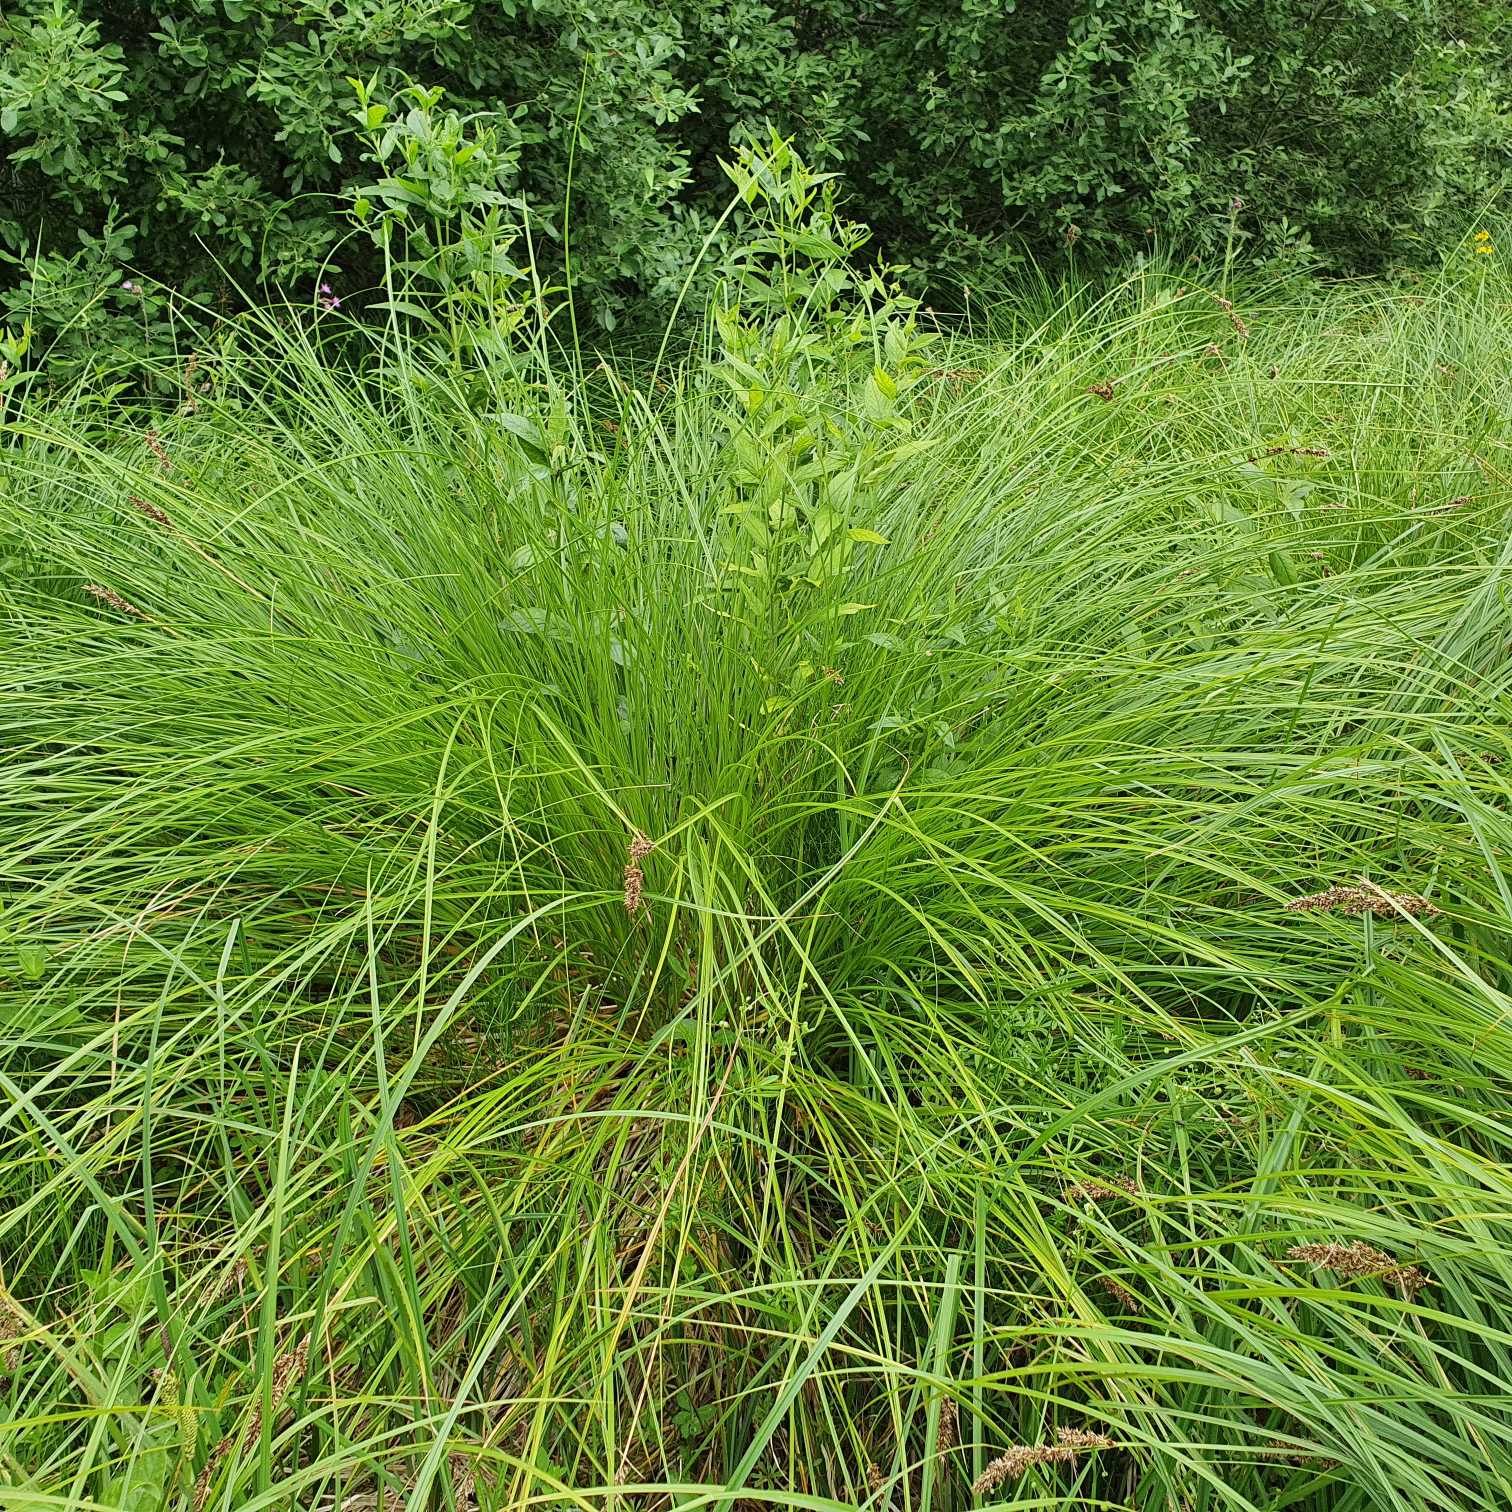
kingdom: Plantae
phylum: Tracheophyta
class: Liliopsida
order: Poales
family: Cyperaceae
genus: Carex
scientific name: Carex paniculata
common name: Top-star
